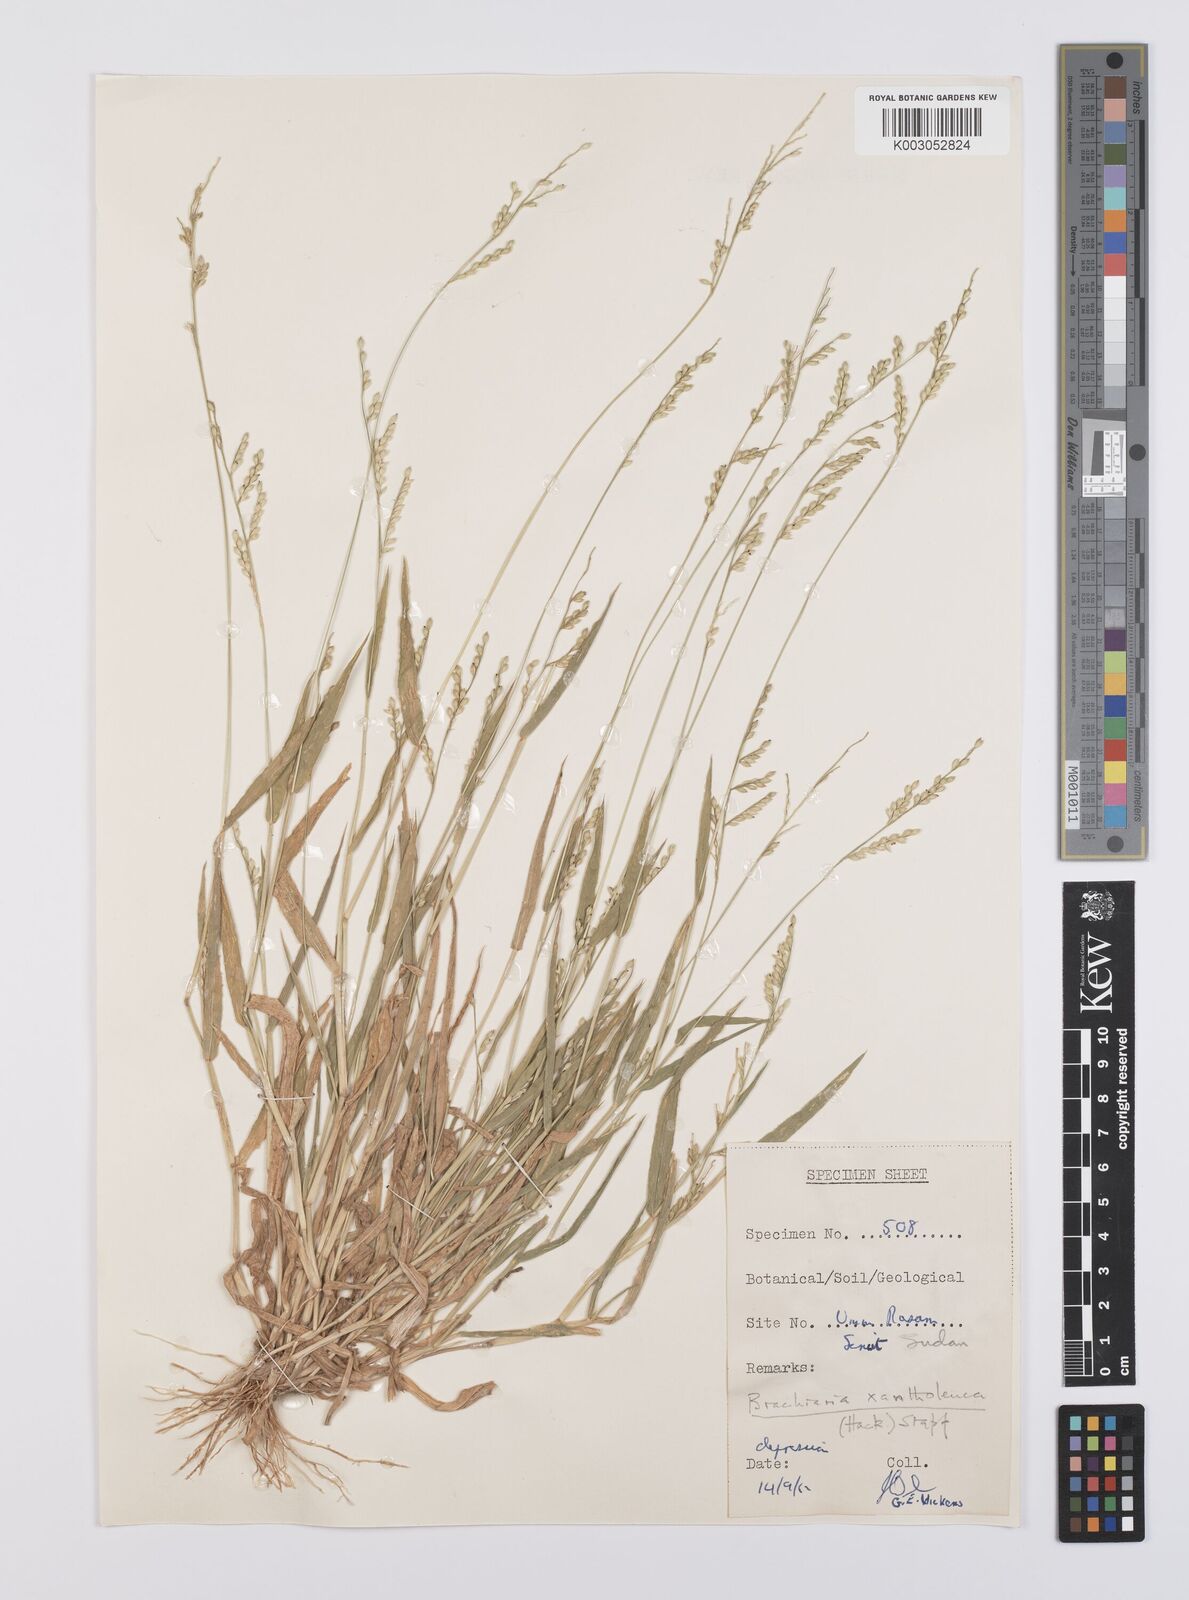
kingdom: Plantae
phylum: Tracheophyta
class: Liliopsida
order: Poales
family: Poaceae
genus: Urochloa
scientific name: Urochloa xantholeuca
